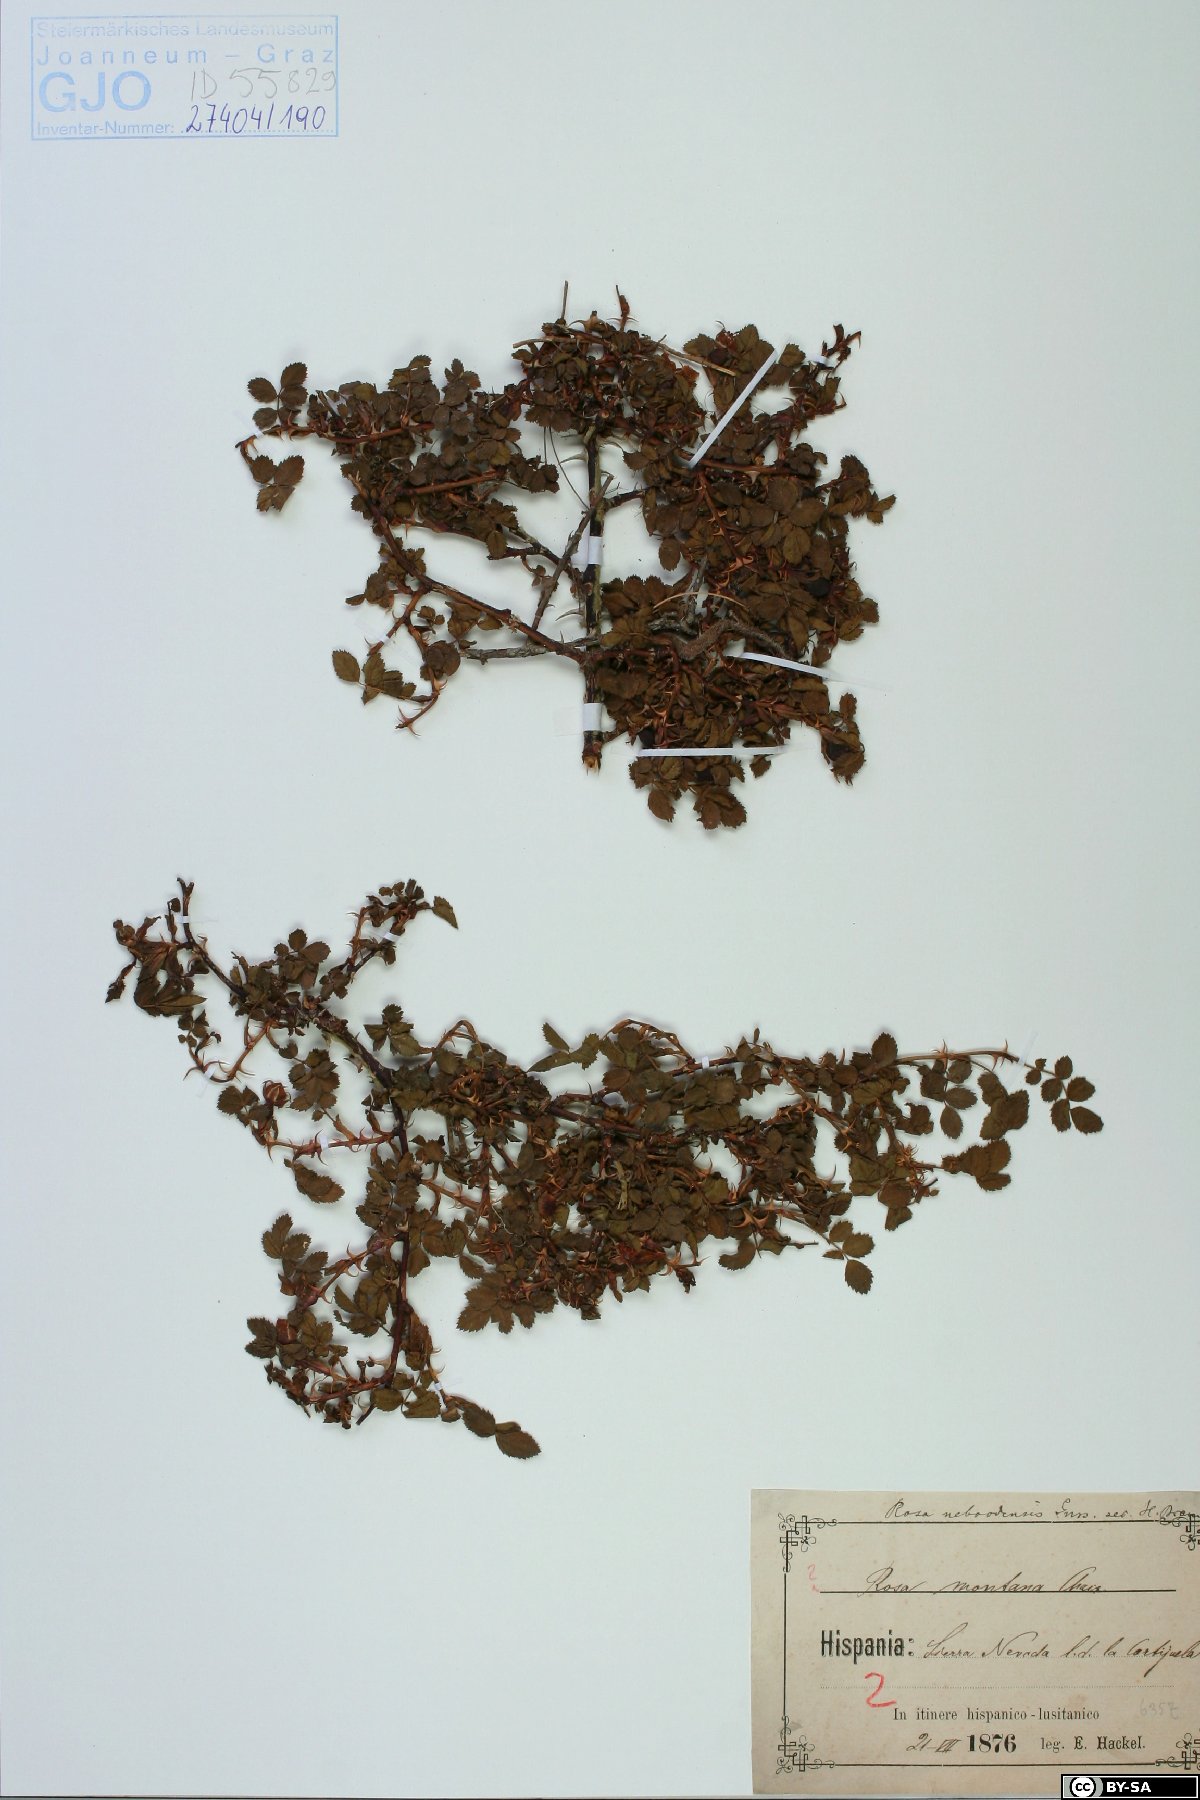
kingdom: Plantae
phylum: Tracheophyta
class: Magnoliopsida
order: Rosales
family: Rosaceae
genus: Rosa
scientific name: Rosa montana
